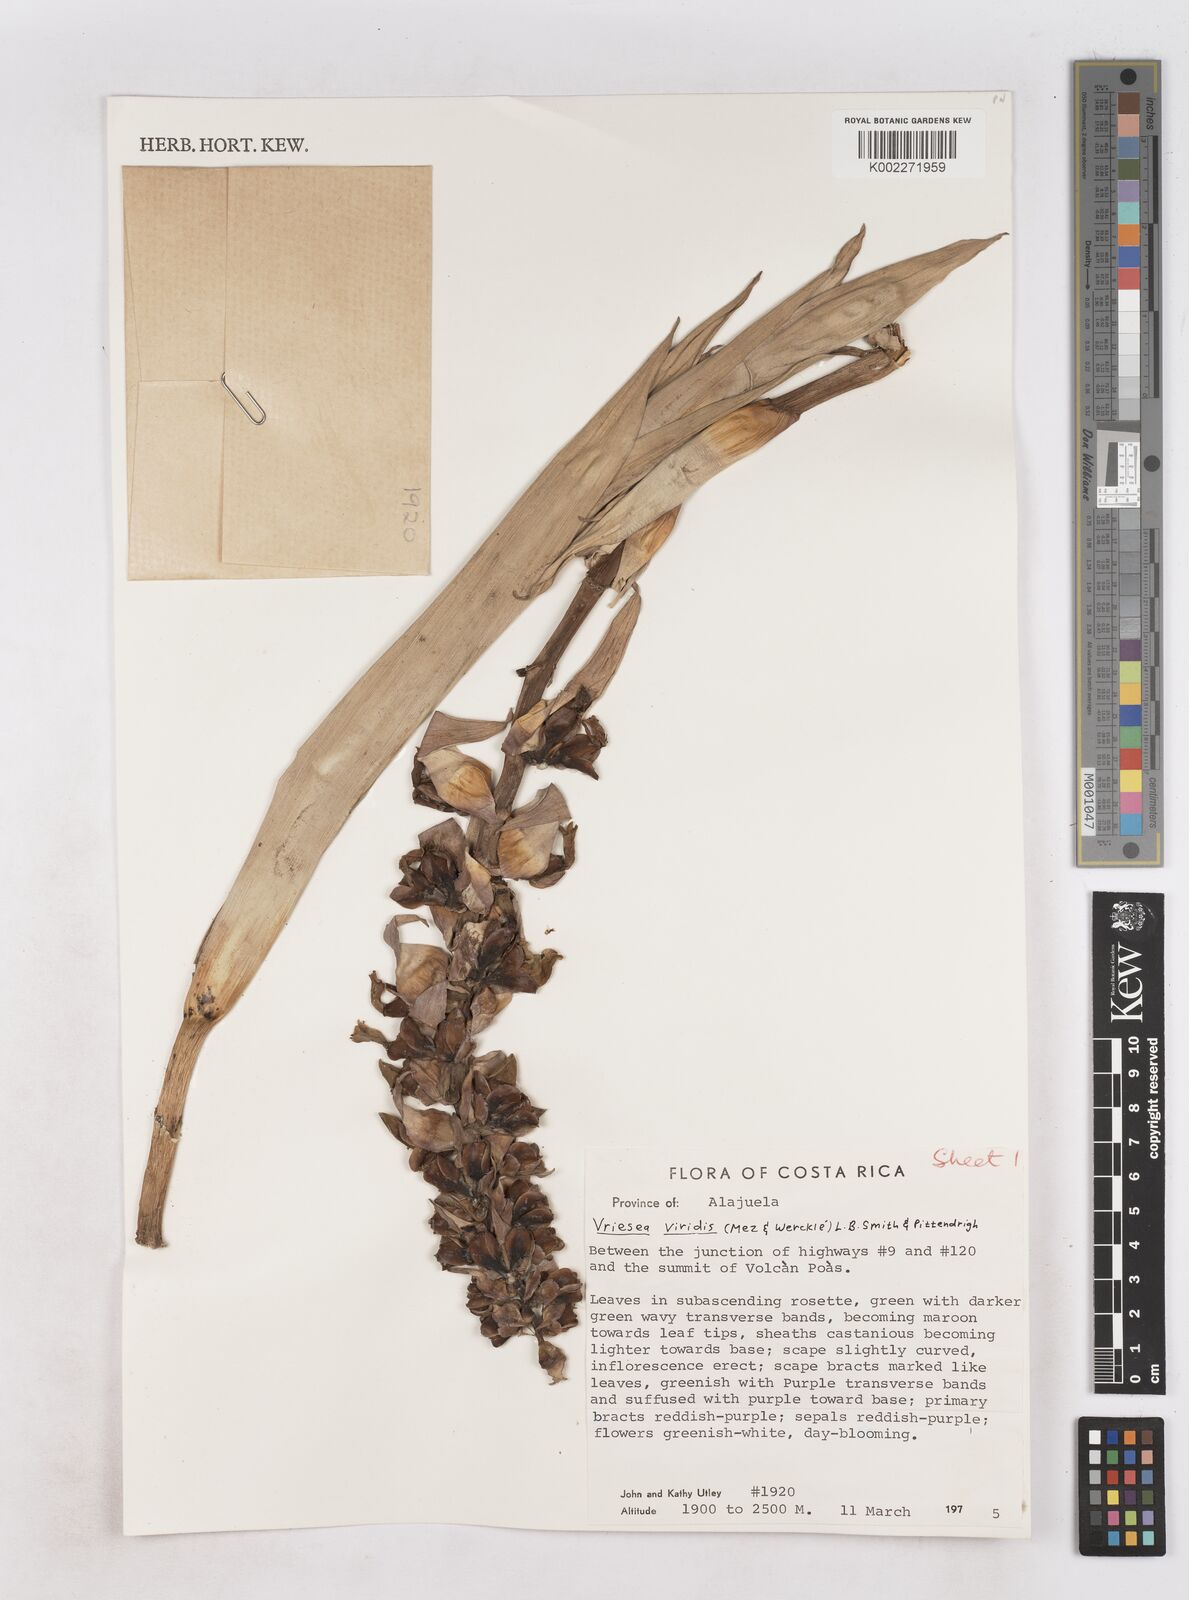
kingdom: Plantae
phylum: Tracheophyta
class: Liliopsida
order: Poales
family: Bromeliaceae
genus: Werauhia
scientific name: Werauhia viridis
